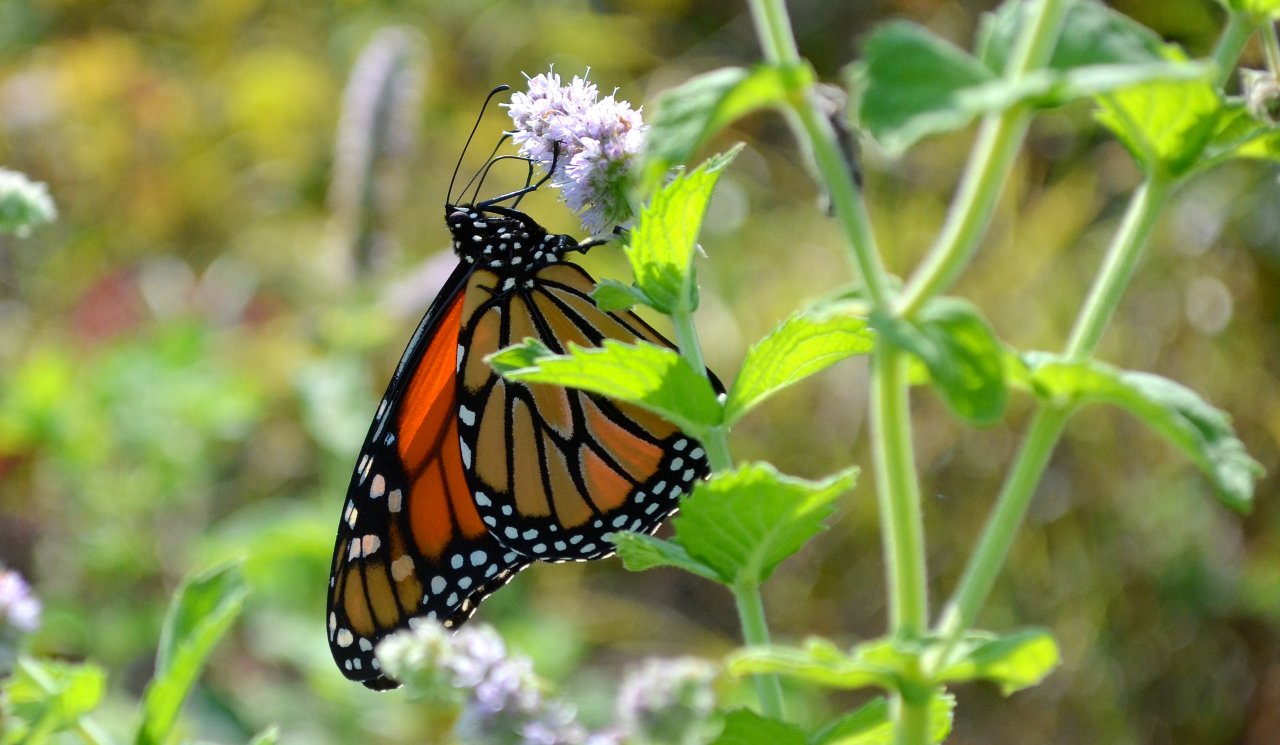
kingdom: Animalia
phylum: Arthropoda
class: Insecta
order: Lepidoptera
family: Nymphalidae
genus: Danaus
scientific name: Danaus plexippus
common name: Monarch
